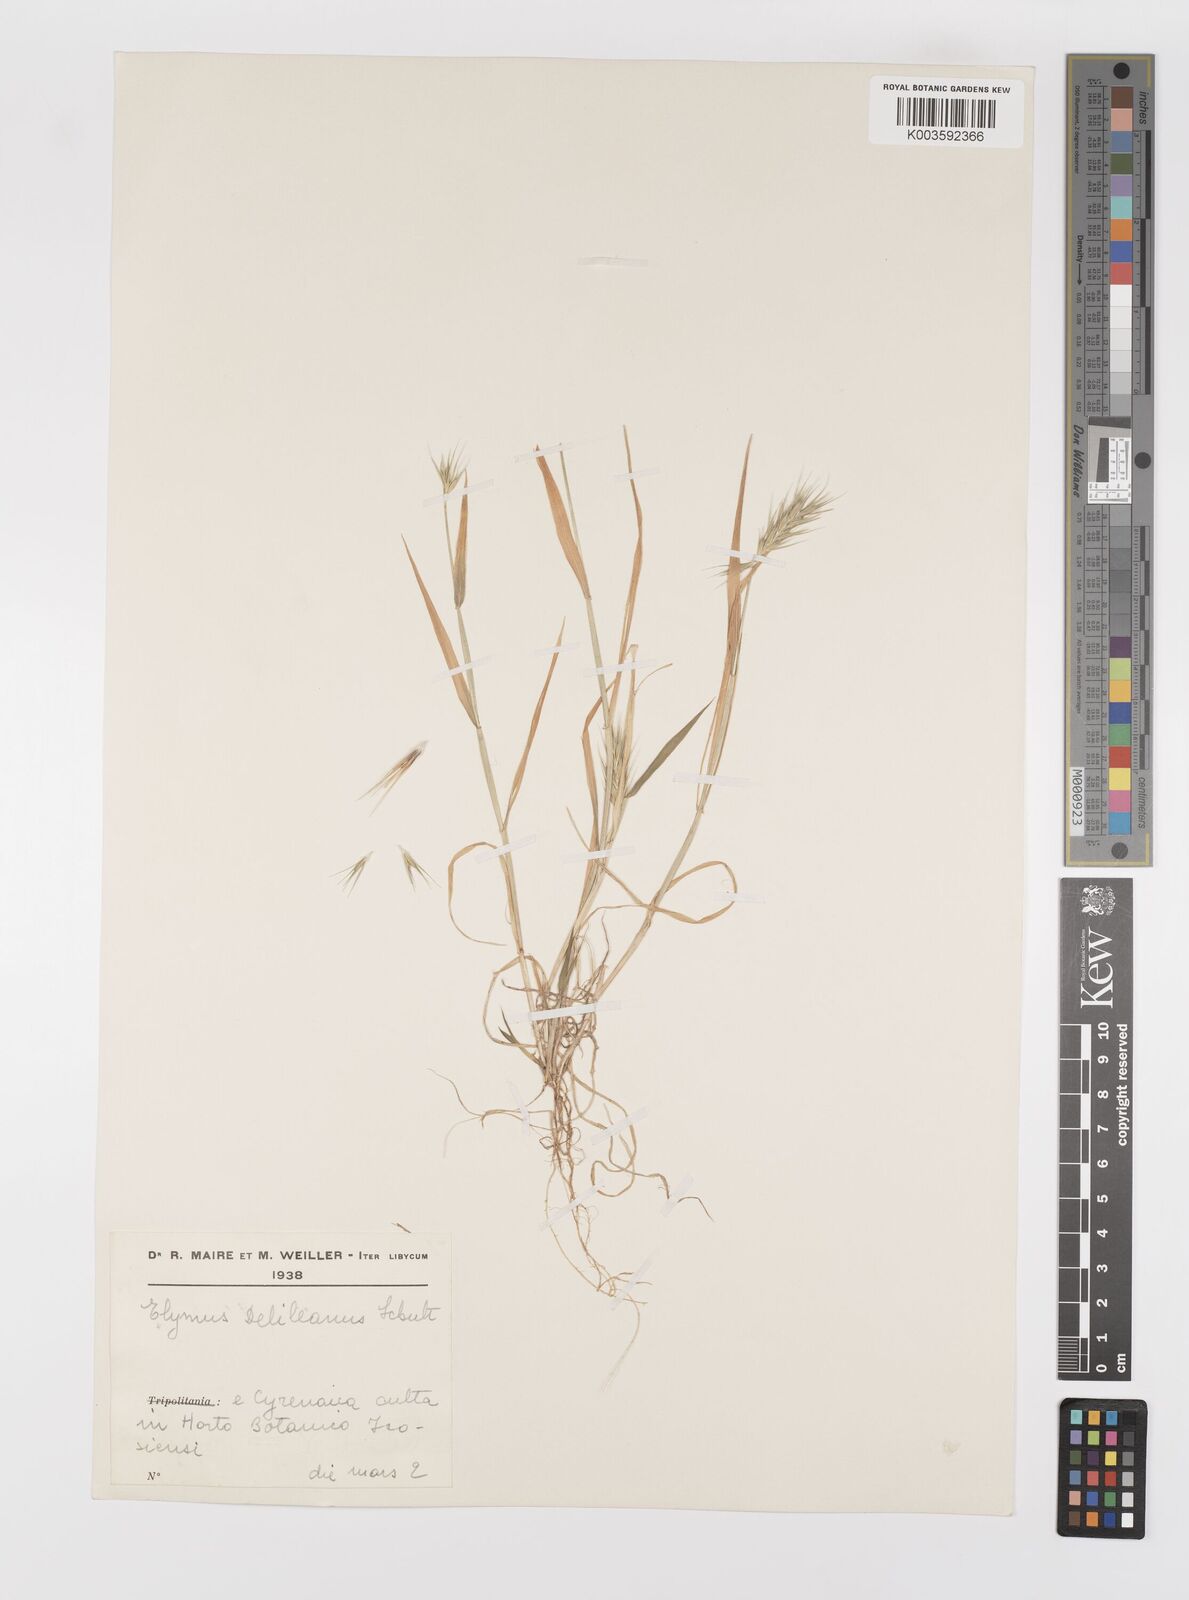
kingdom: Plantae
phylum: Tracheophyta
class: Liliopsida
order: Poales
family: Poaceae
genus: Crithopsis
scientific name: Crithopsis delileana
